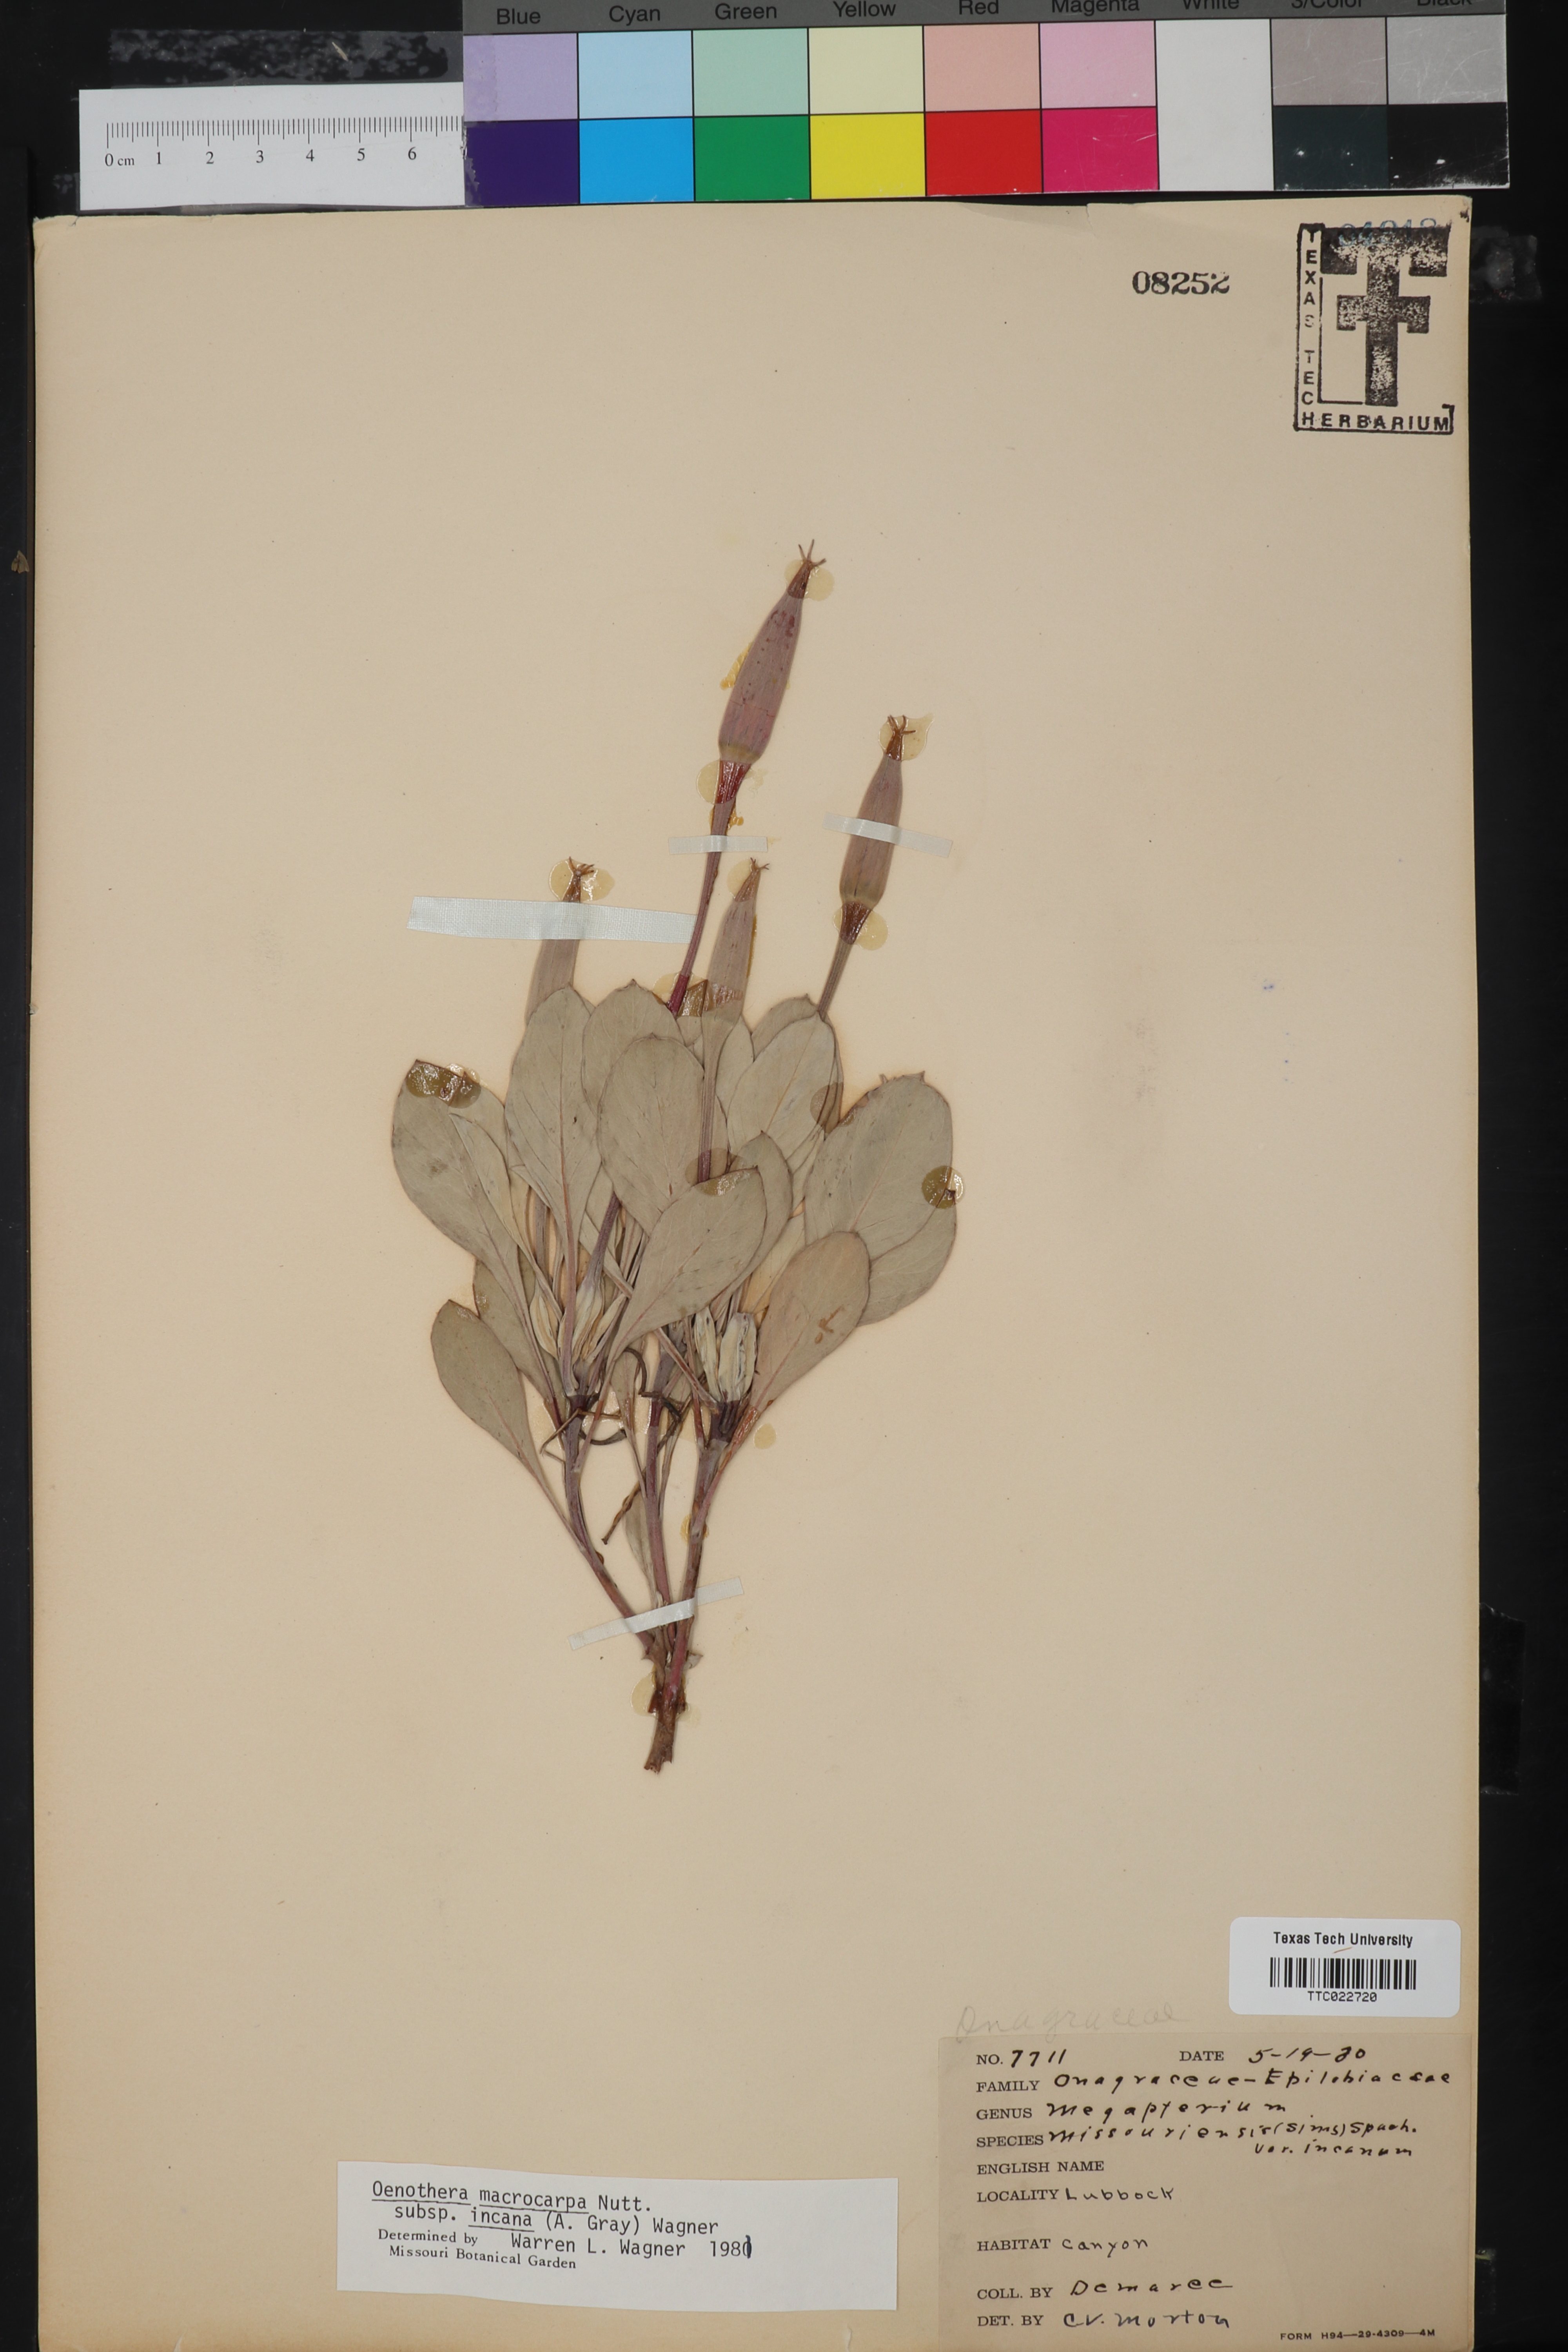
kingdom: Plantae
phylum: Tracheophyta
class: Magnoliopsida
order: Myrtales
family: Onagraceae
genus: Oenothera
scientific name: Oenothera macrocarpa
